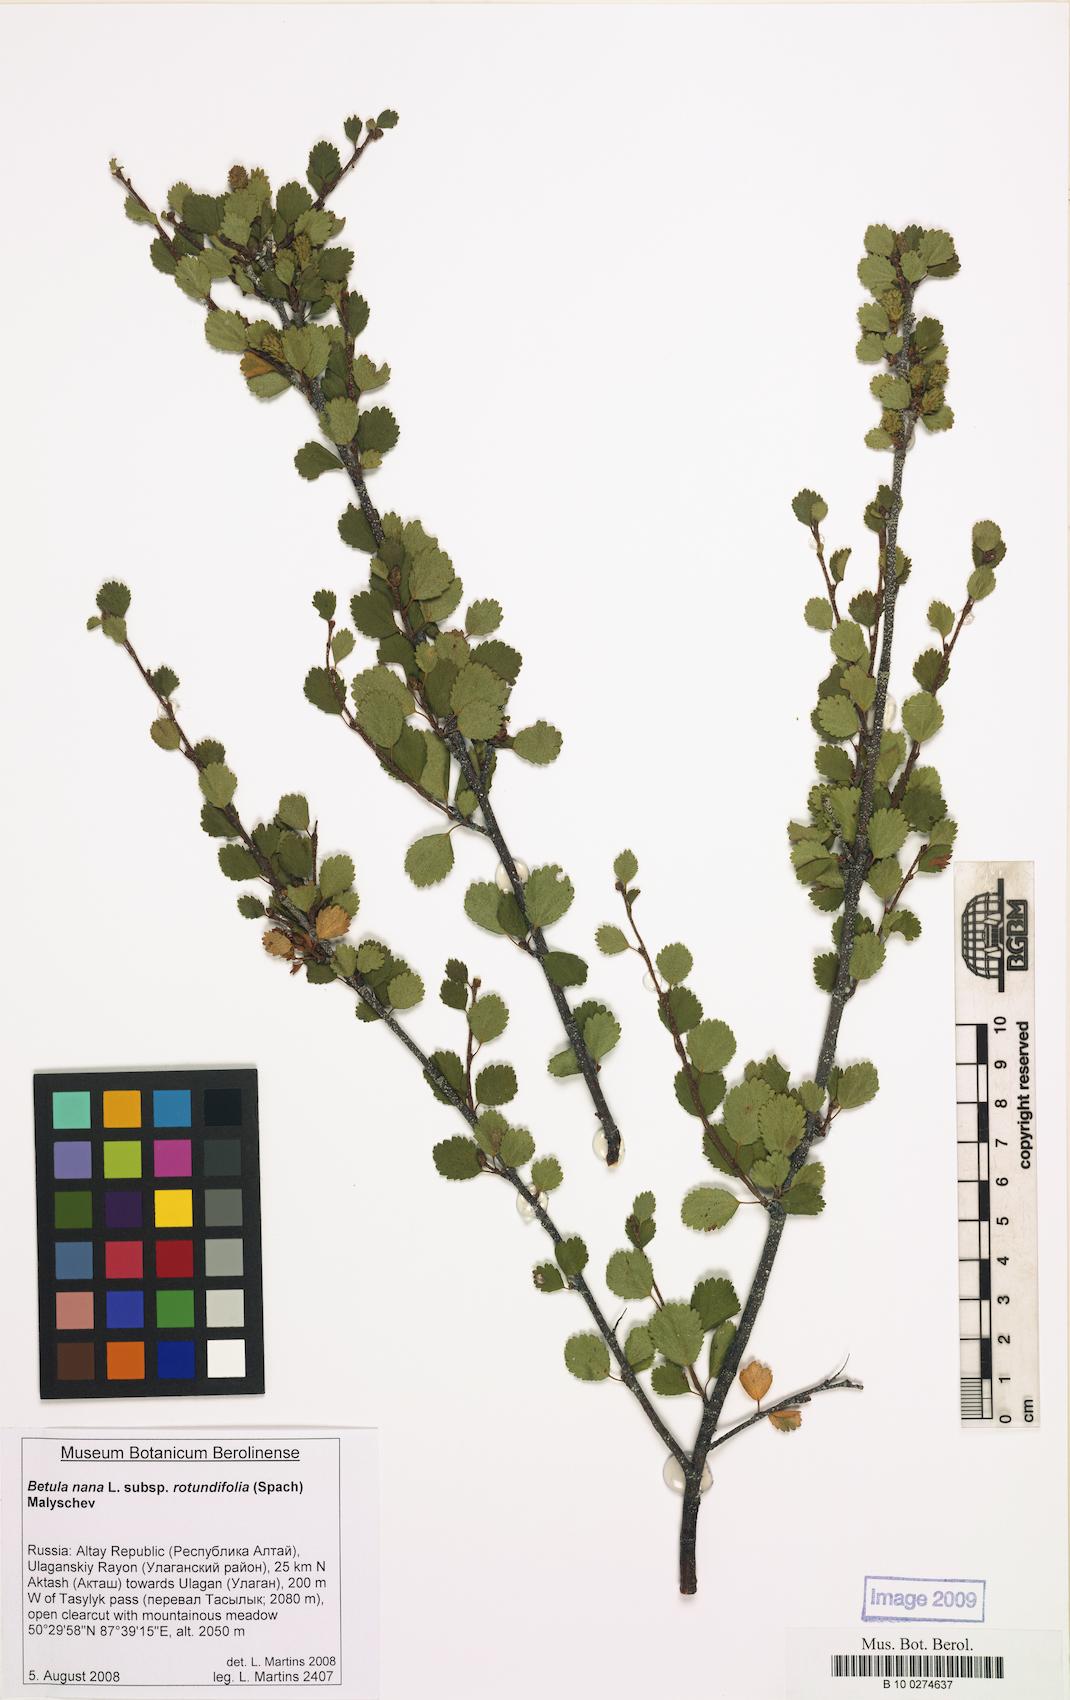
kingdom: Plantae
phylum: Tracheophyta
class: Magnoliopsida
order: Fagales
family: Betulaceae
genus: Betula
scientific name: Betula glandulosa
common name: Dwarf birch
